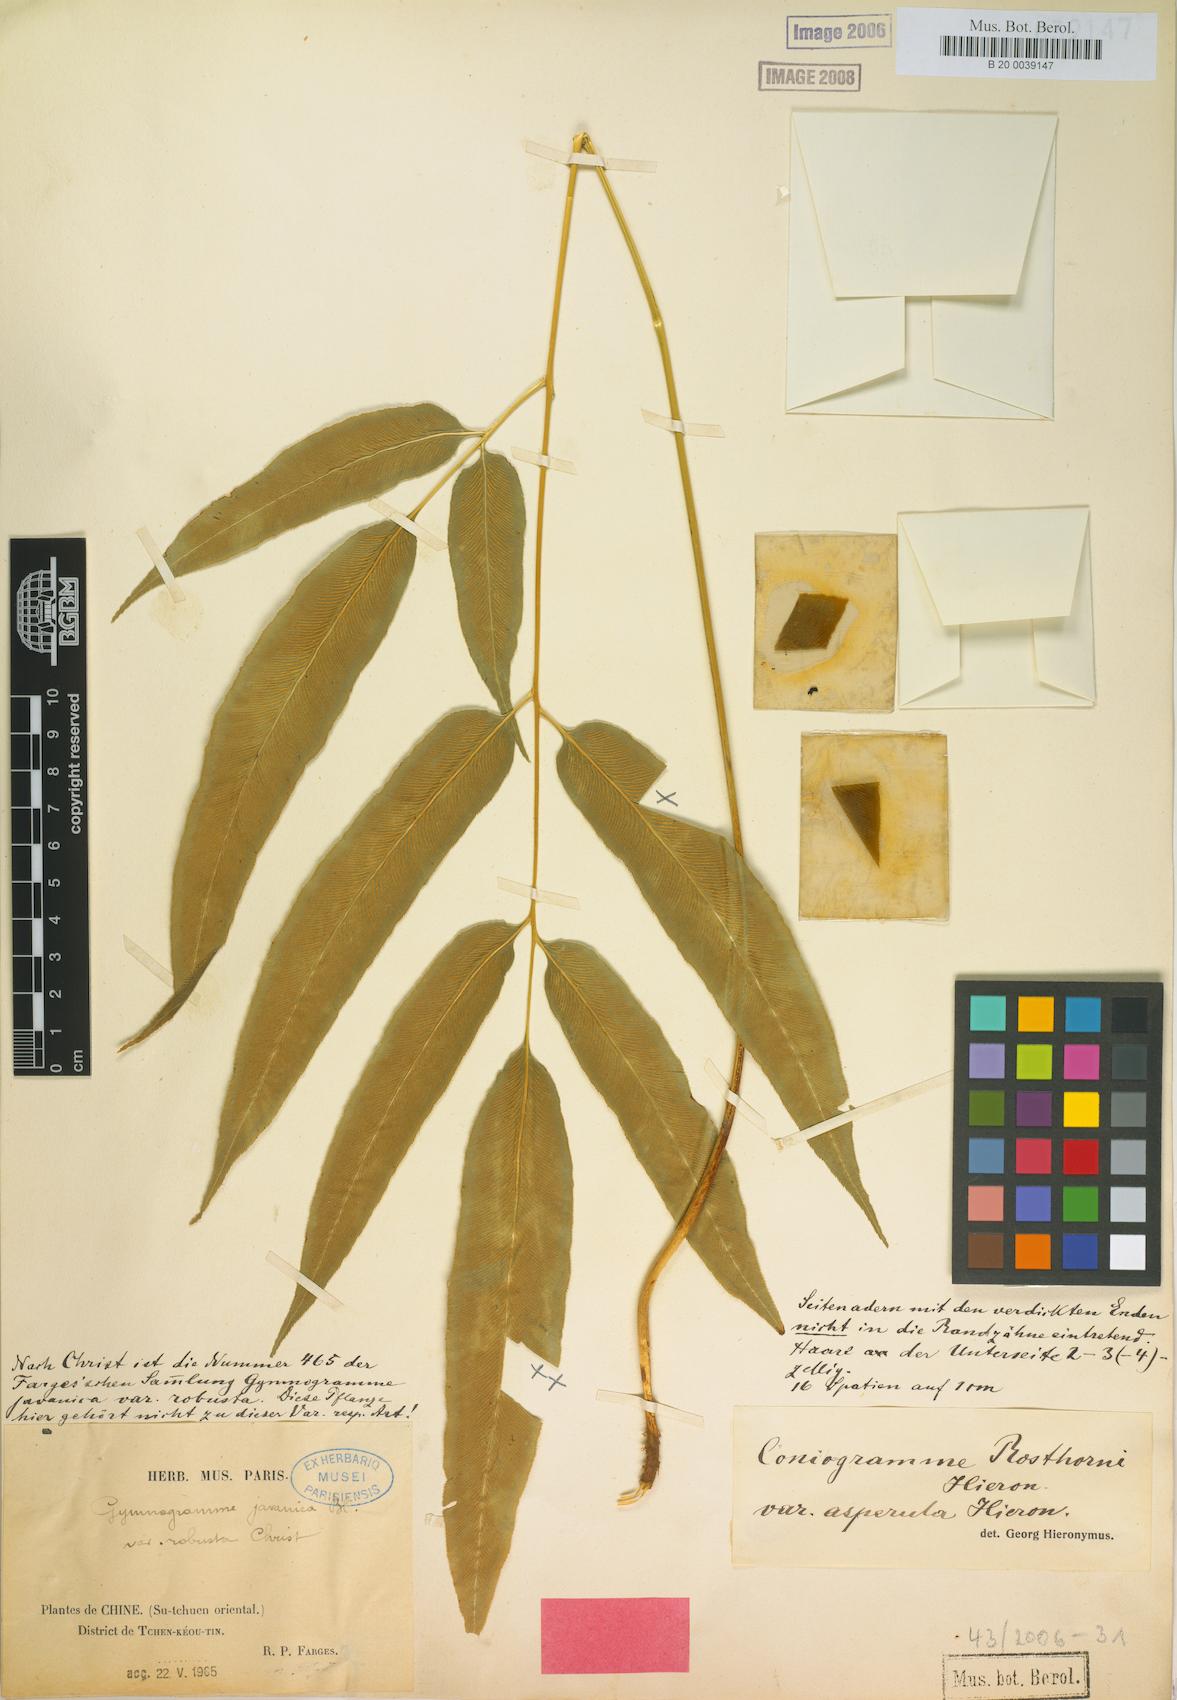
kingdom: Plantae
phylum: Tracheophyta
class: Polypodiopsida
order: Polypodiales
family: Pteridaceae
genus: Coniogramme
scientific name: Coniogramme rosthornii
